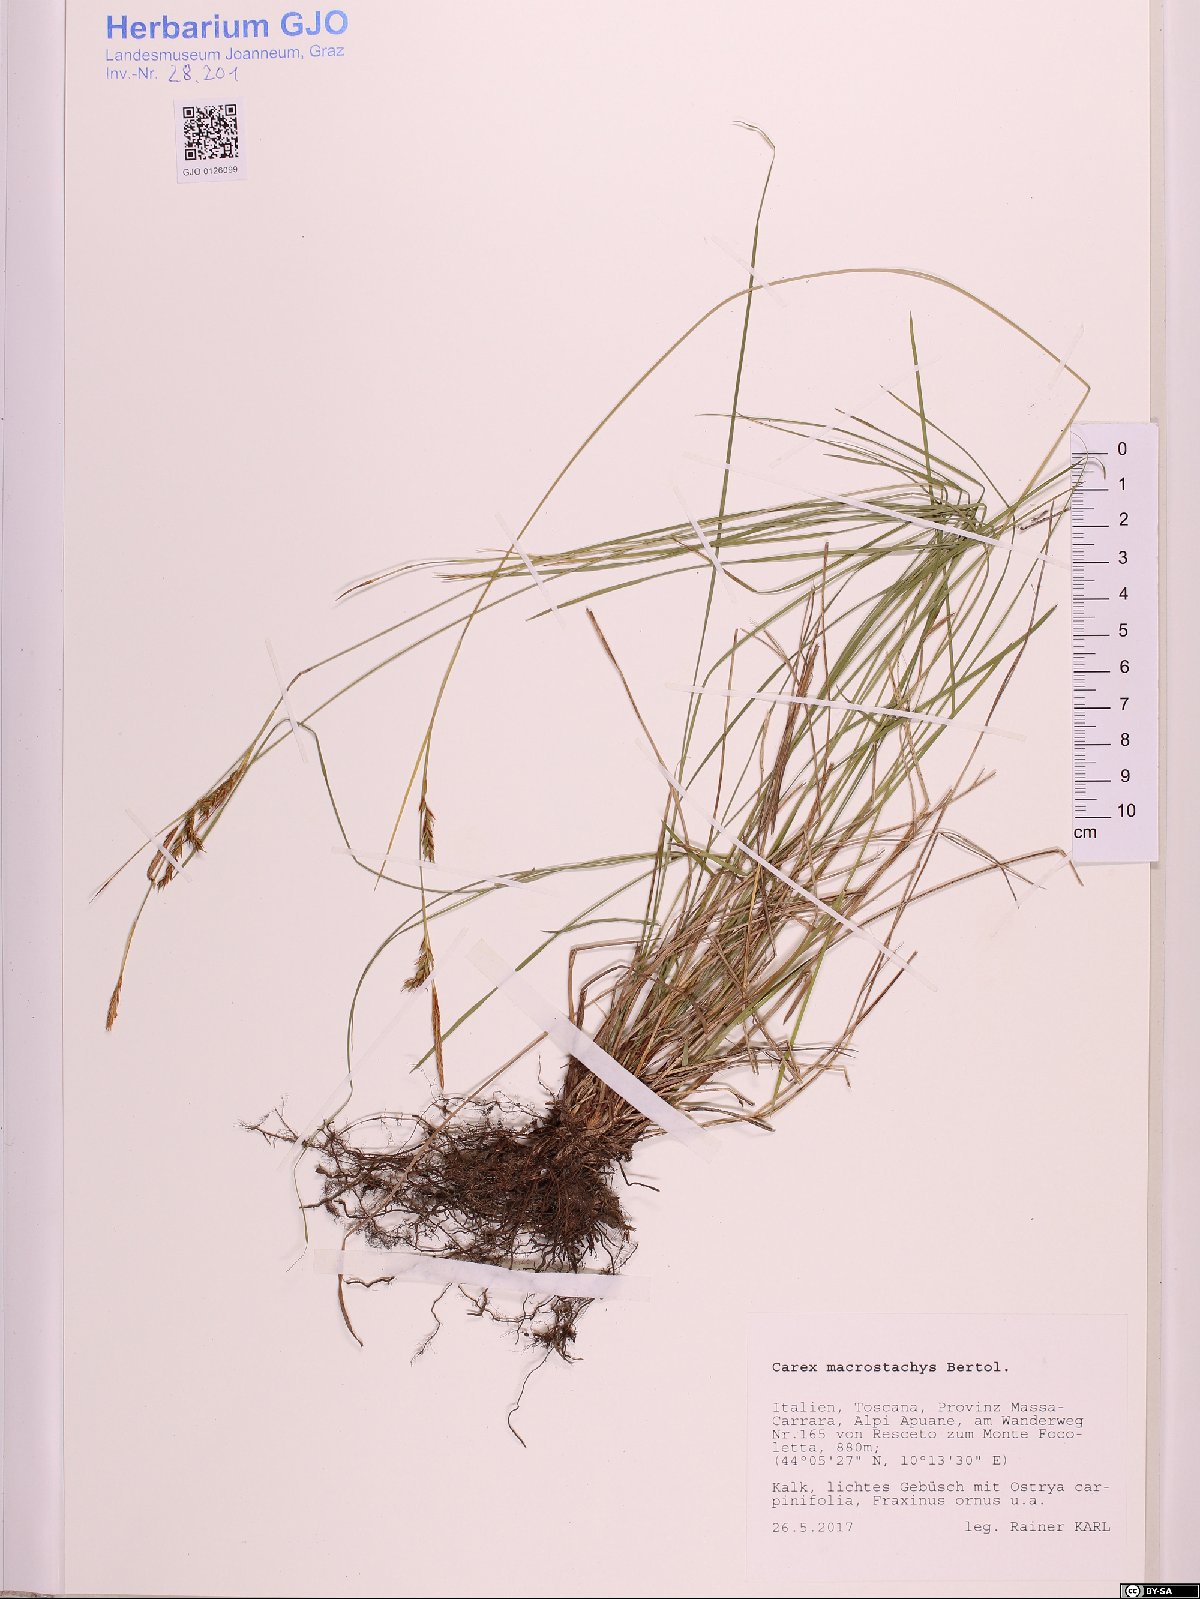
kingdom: Plantae
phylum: Tracheophyta
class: Liliopsida
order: Poales
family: Cyperaceae
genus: Carex
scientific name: Carex macrostachys
